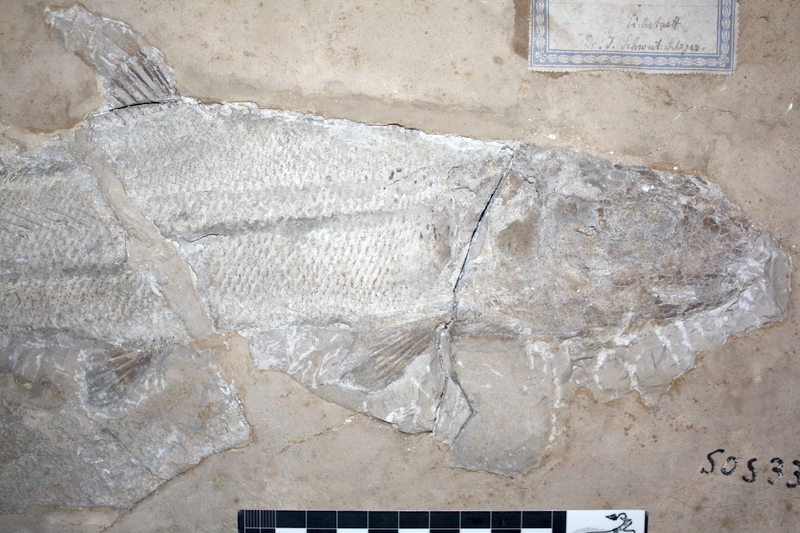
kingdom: Animalia
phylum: Chordata
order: Amiiformes
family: Caturidae
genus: Caturus
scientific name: Caturus furcatus
